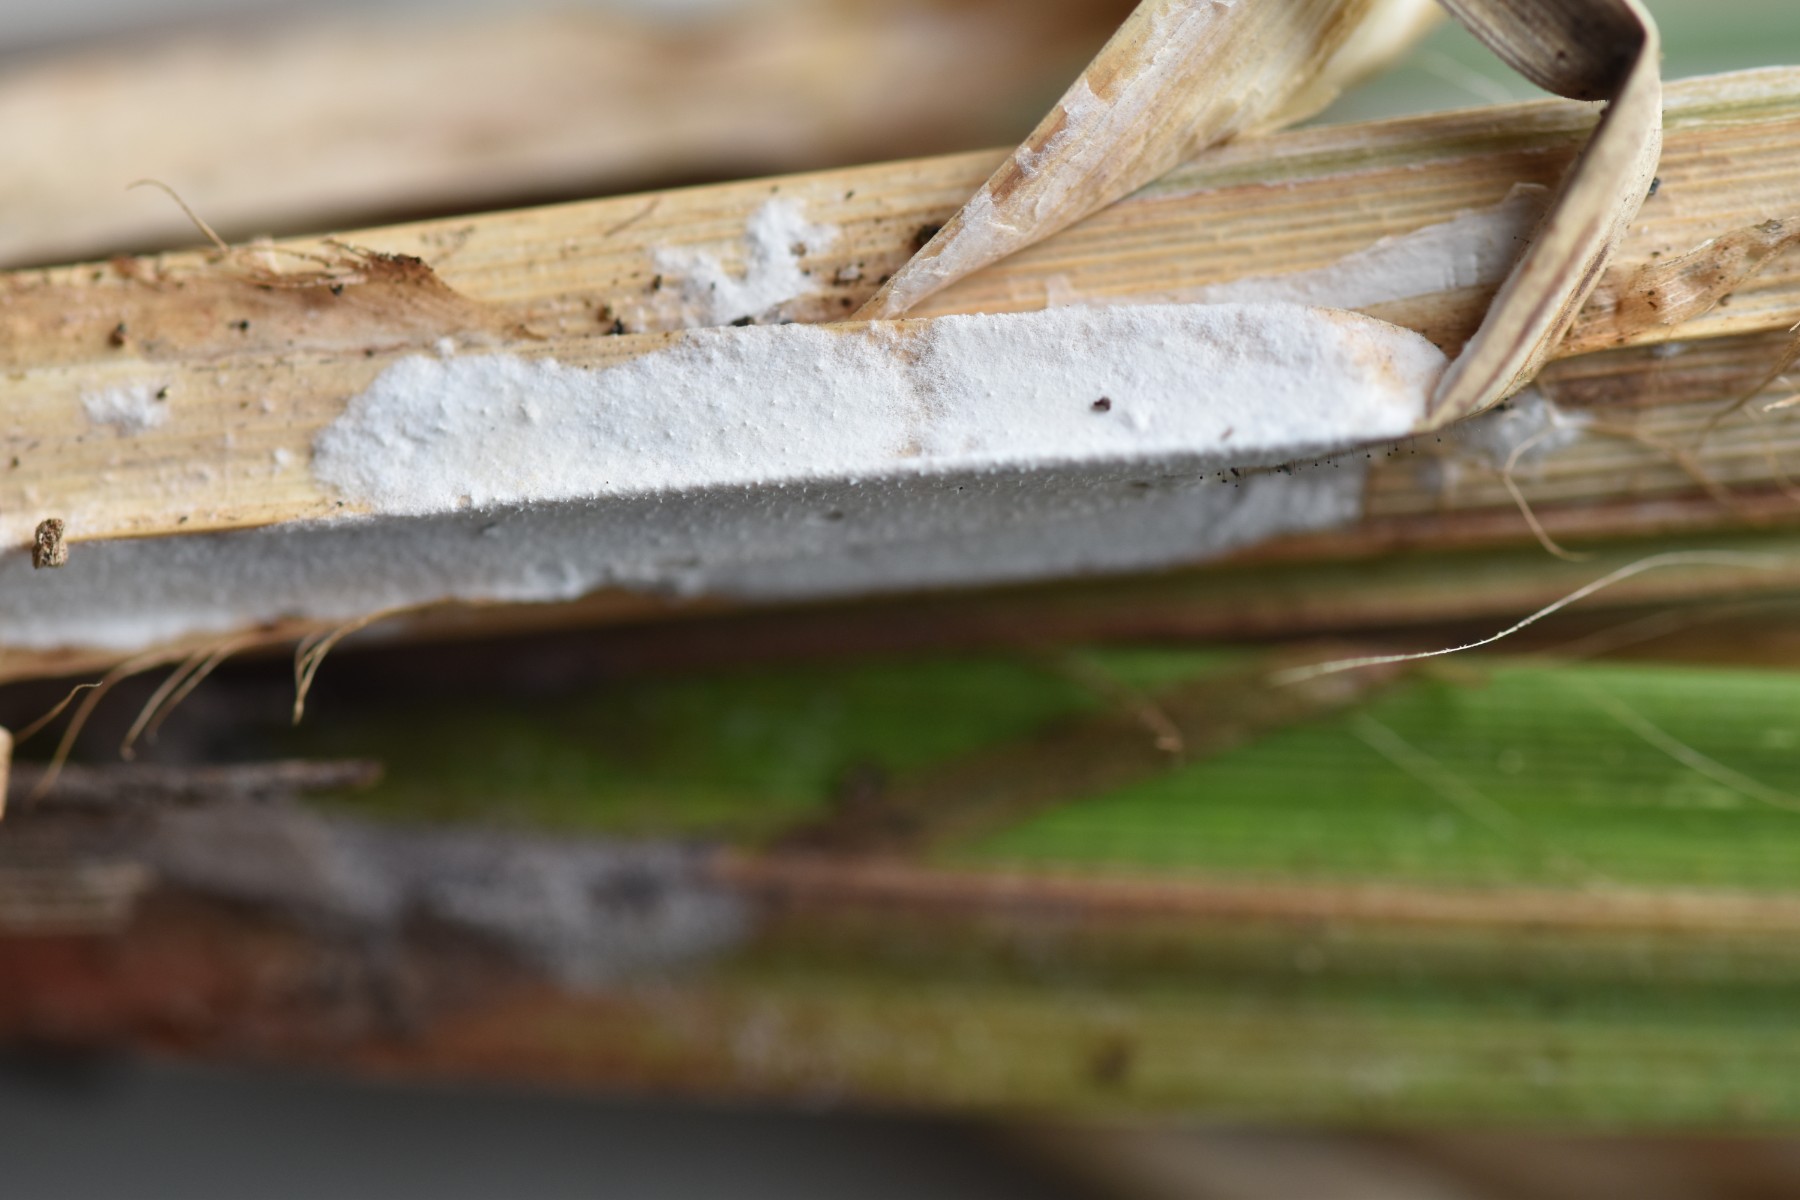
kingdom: Fungi
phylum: Basidiomycota
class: Agaricomycetes
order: Polyporales
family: Polyporaceae
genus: Epithele
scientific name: Epithele typhae
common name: starpig
